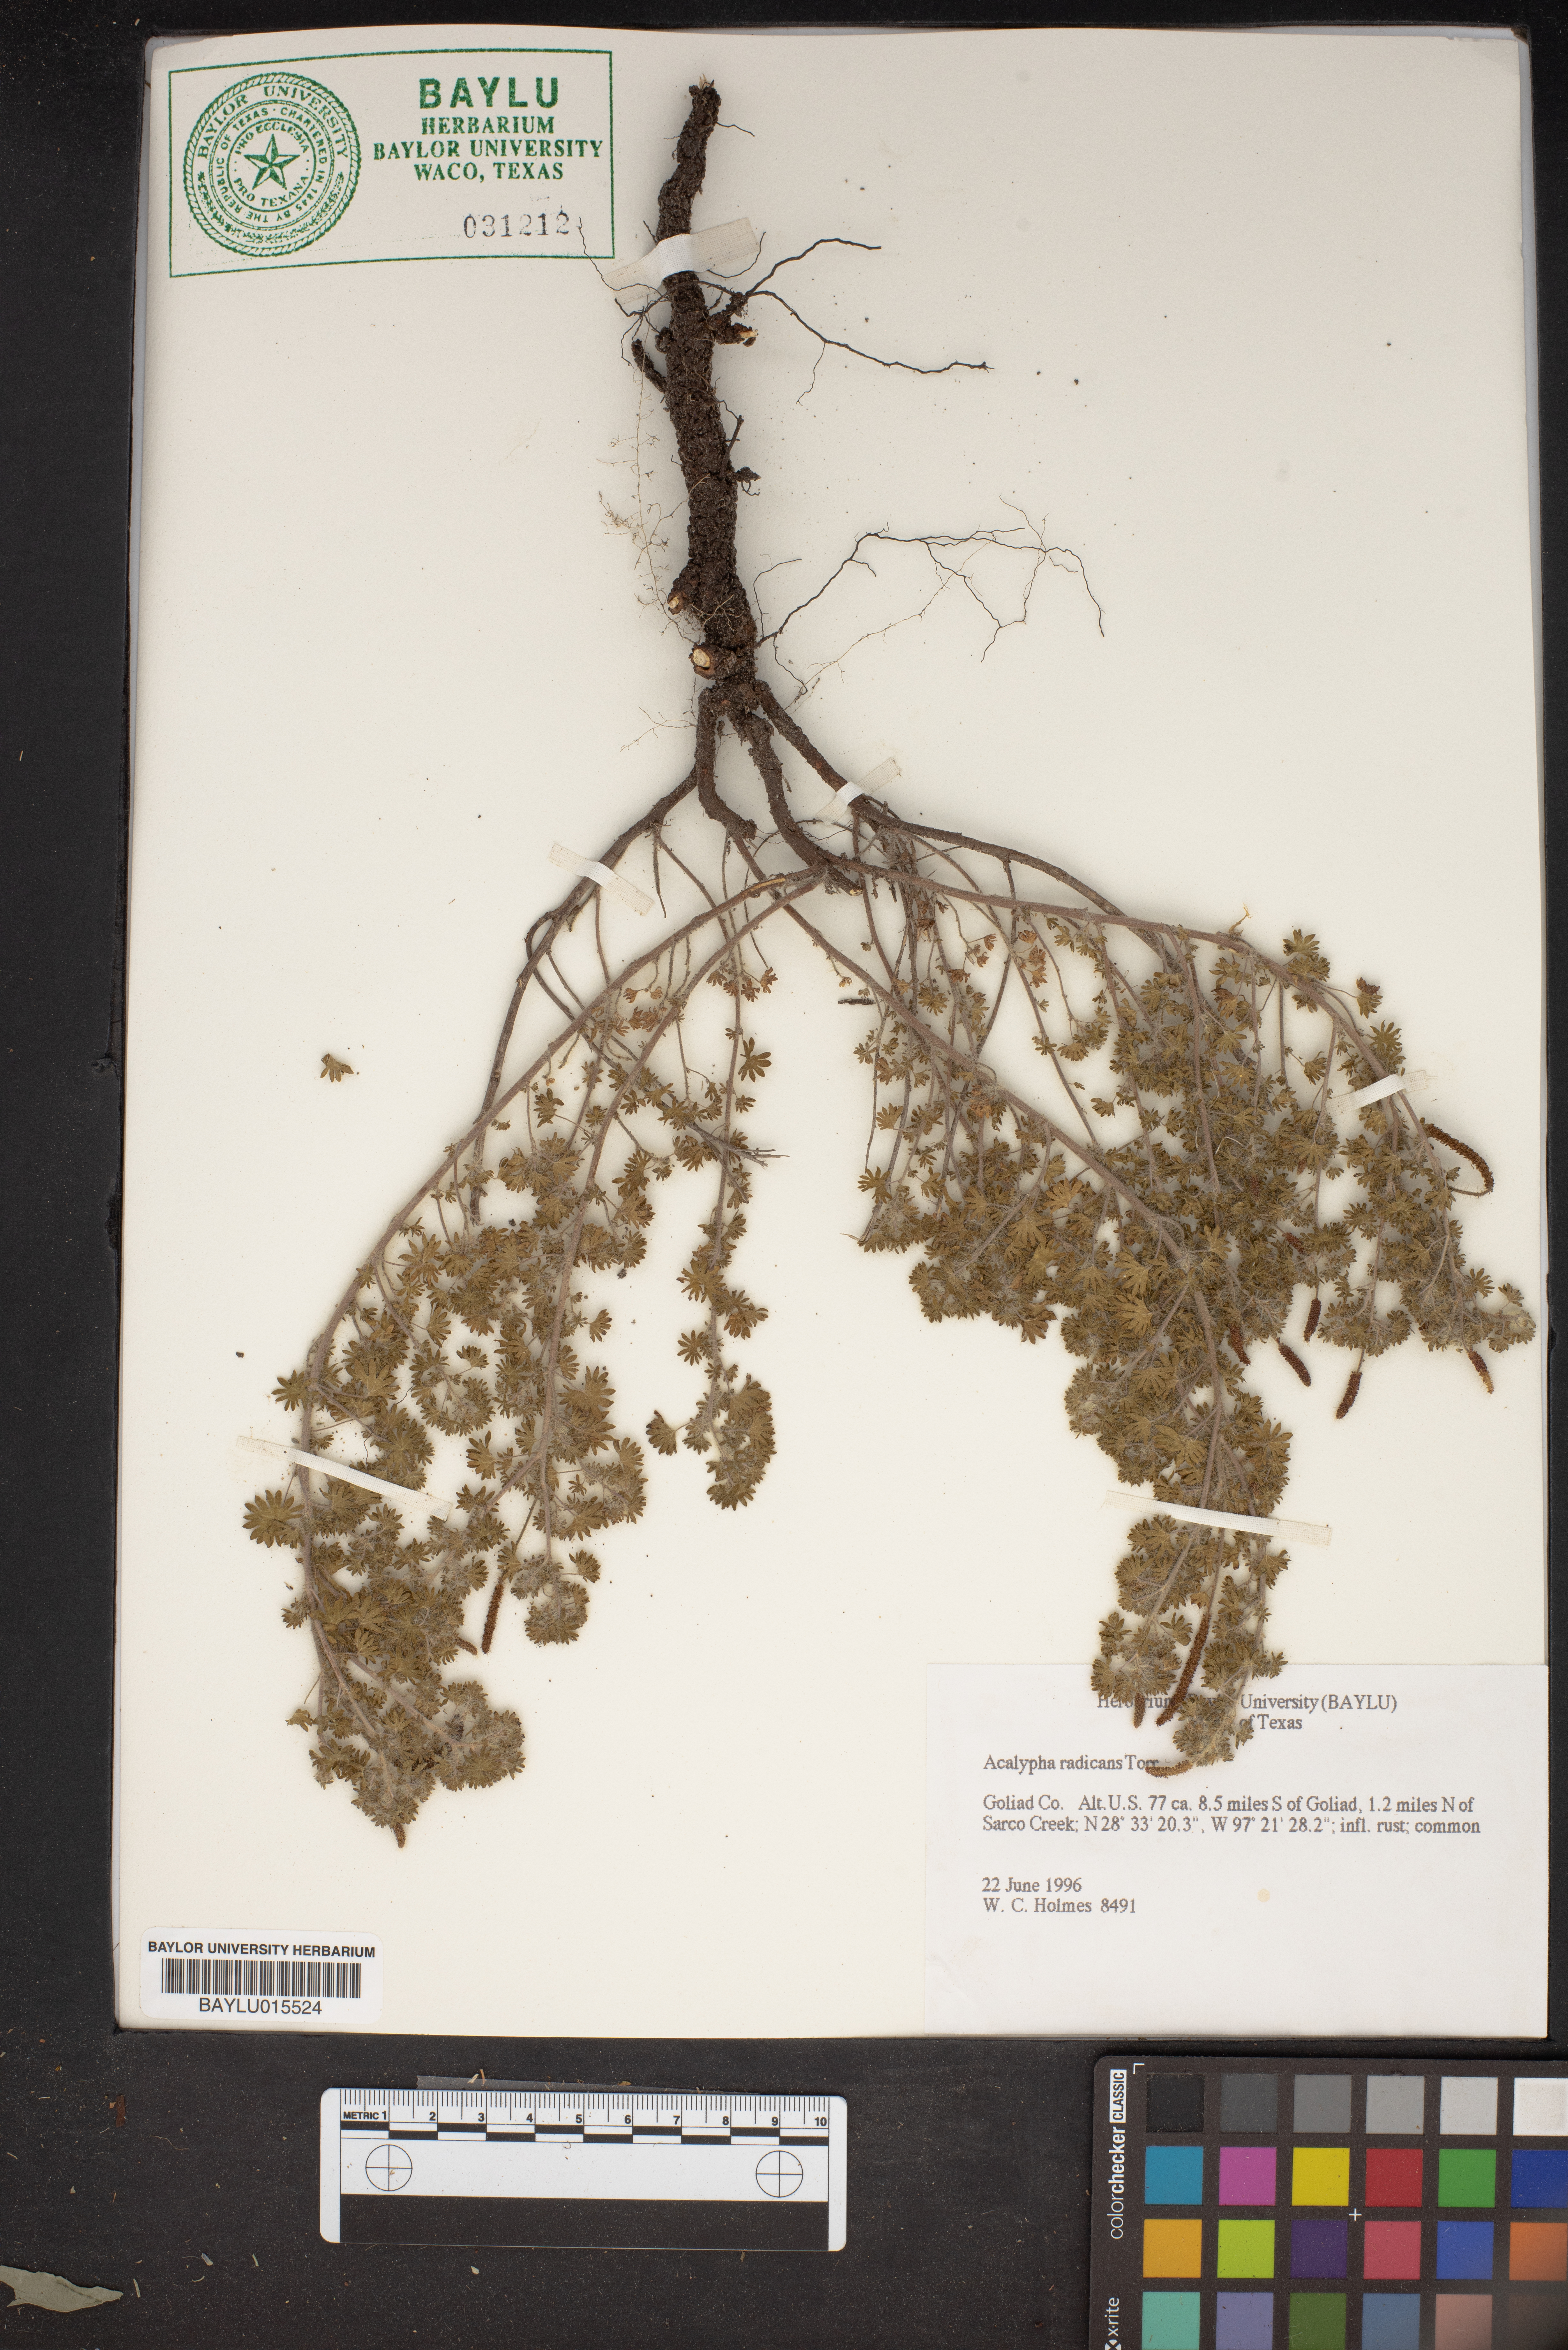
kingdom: Plantae
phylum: Tracheophyta
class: Magnoliopsida
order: Malpighiales
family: Euphorbiaceae
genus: Acalypha
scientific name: Acalypha radians
